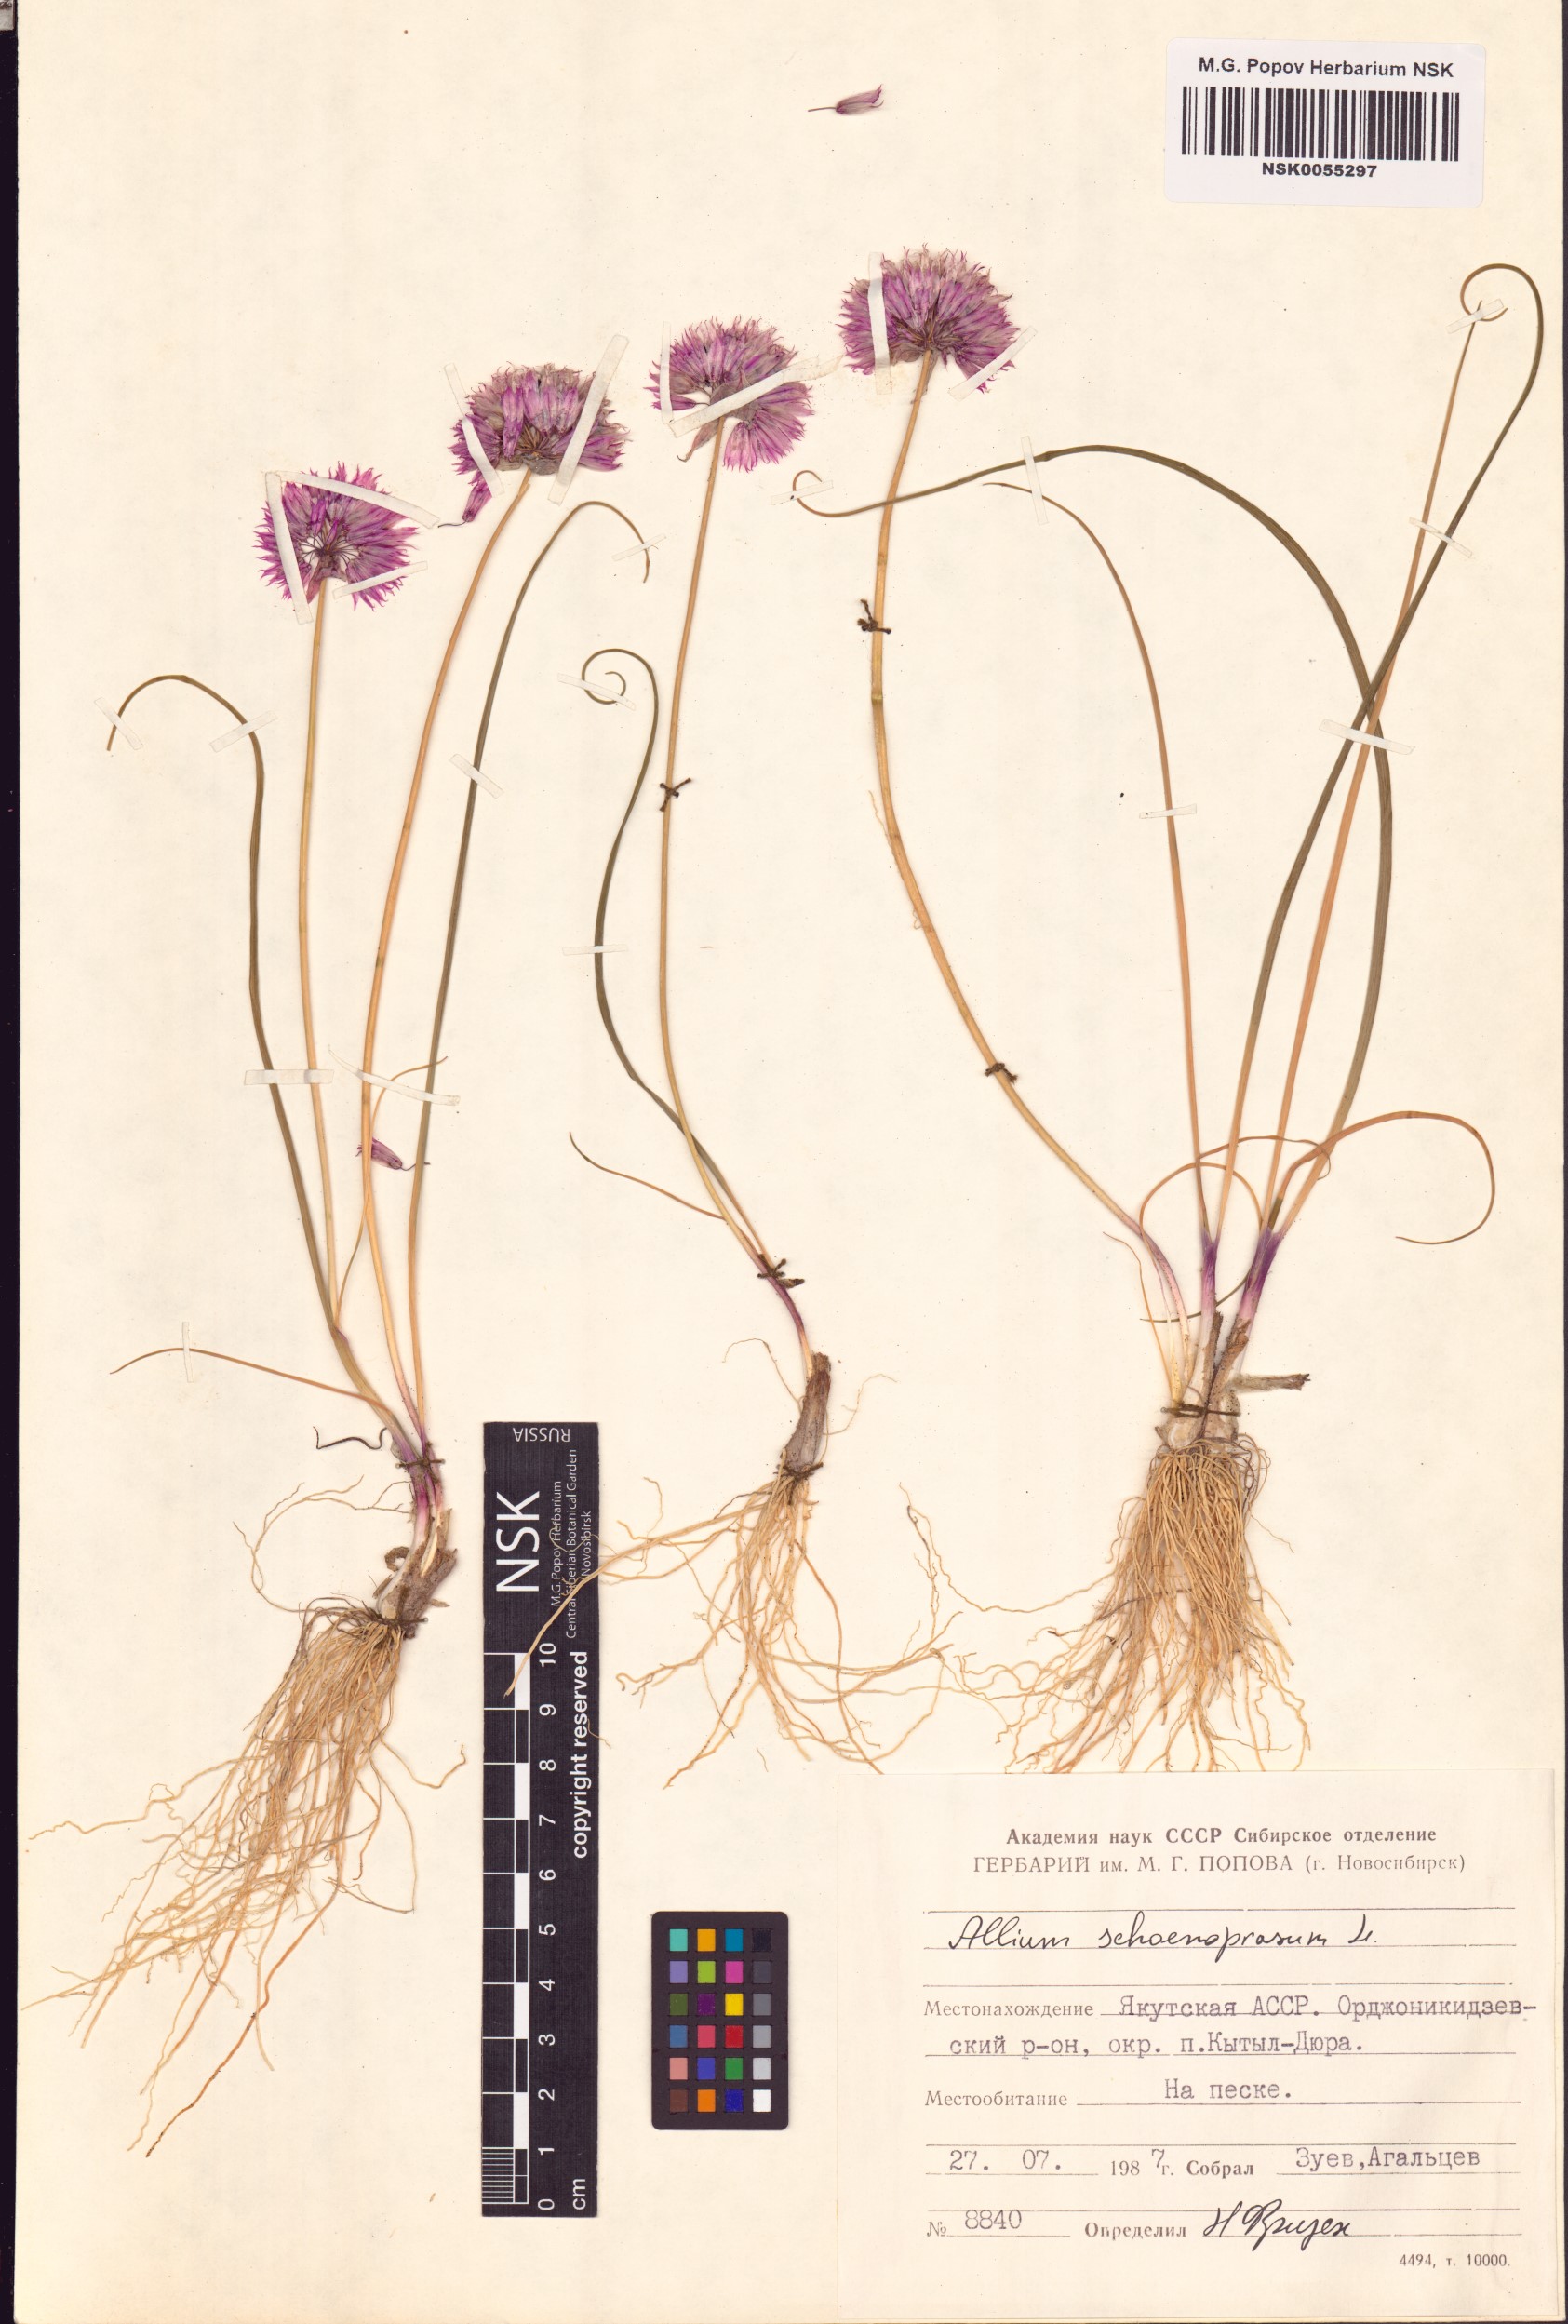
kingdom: Plantae
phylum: Tracheophyta
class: Liliopsida
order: Asparagales
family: Amaryllidaceae
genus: Allium
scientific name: Allium schoenoprasum
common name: Chives
